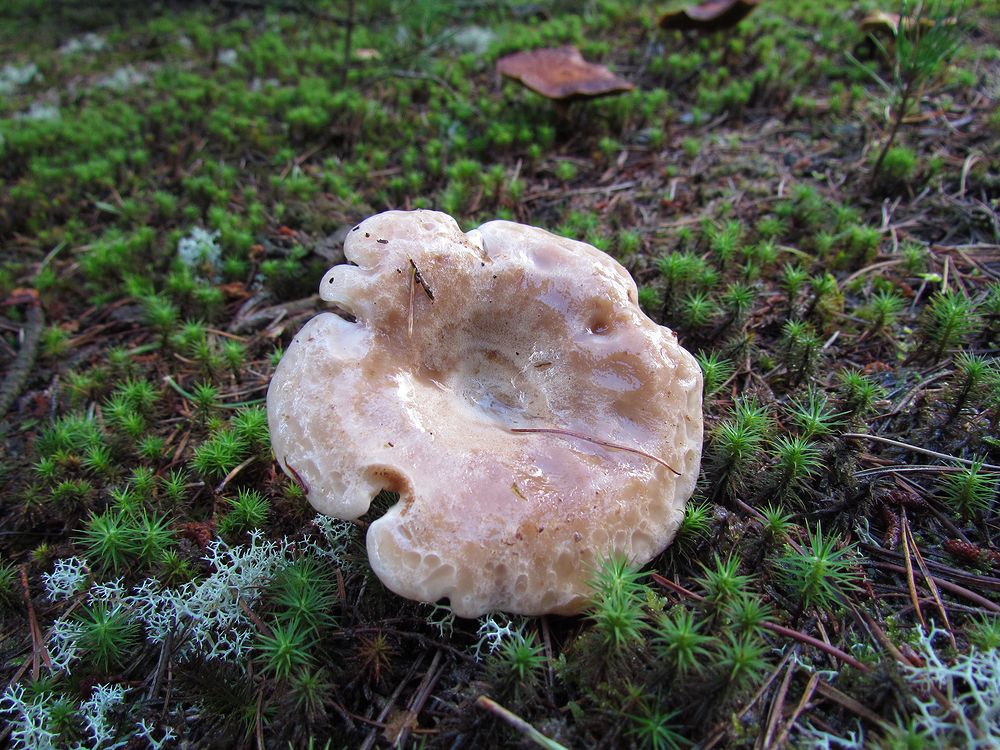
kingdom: Fungi
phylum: Basidiomycota
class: Agaricomycetes
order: Russulales
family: Russulaceae
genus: Lactarius
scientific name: Lactarius musteus
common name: elfenbens-mælkehat
